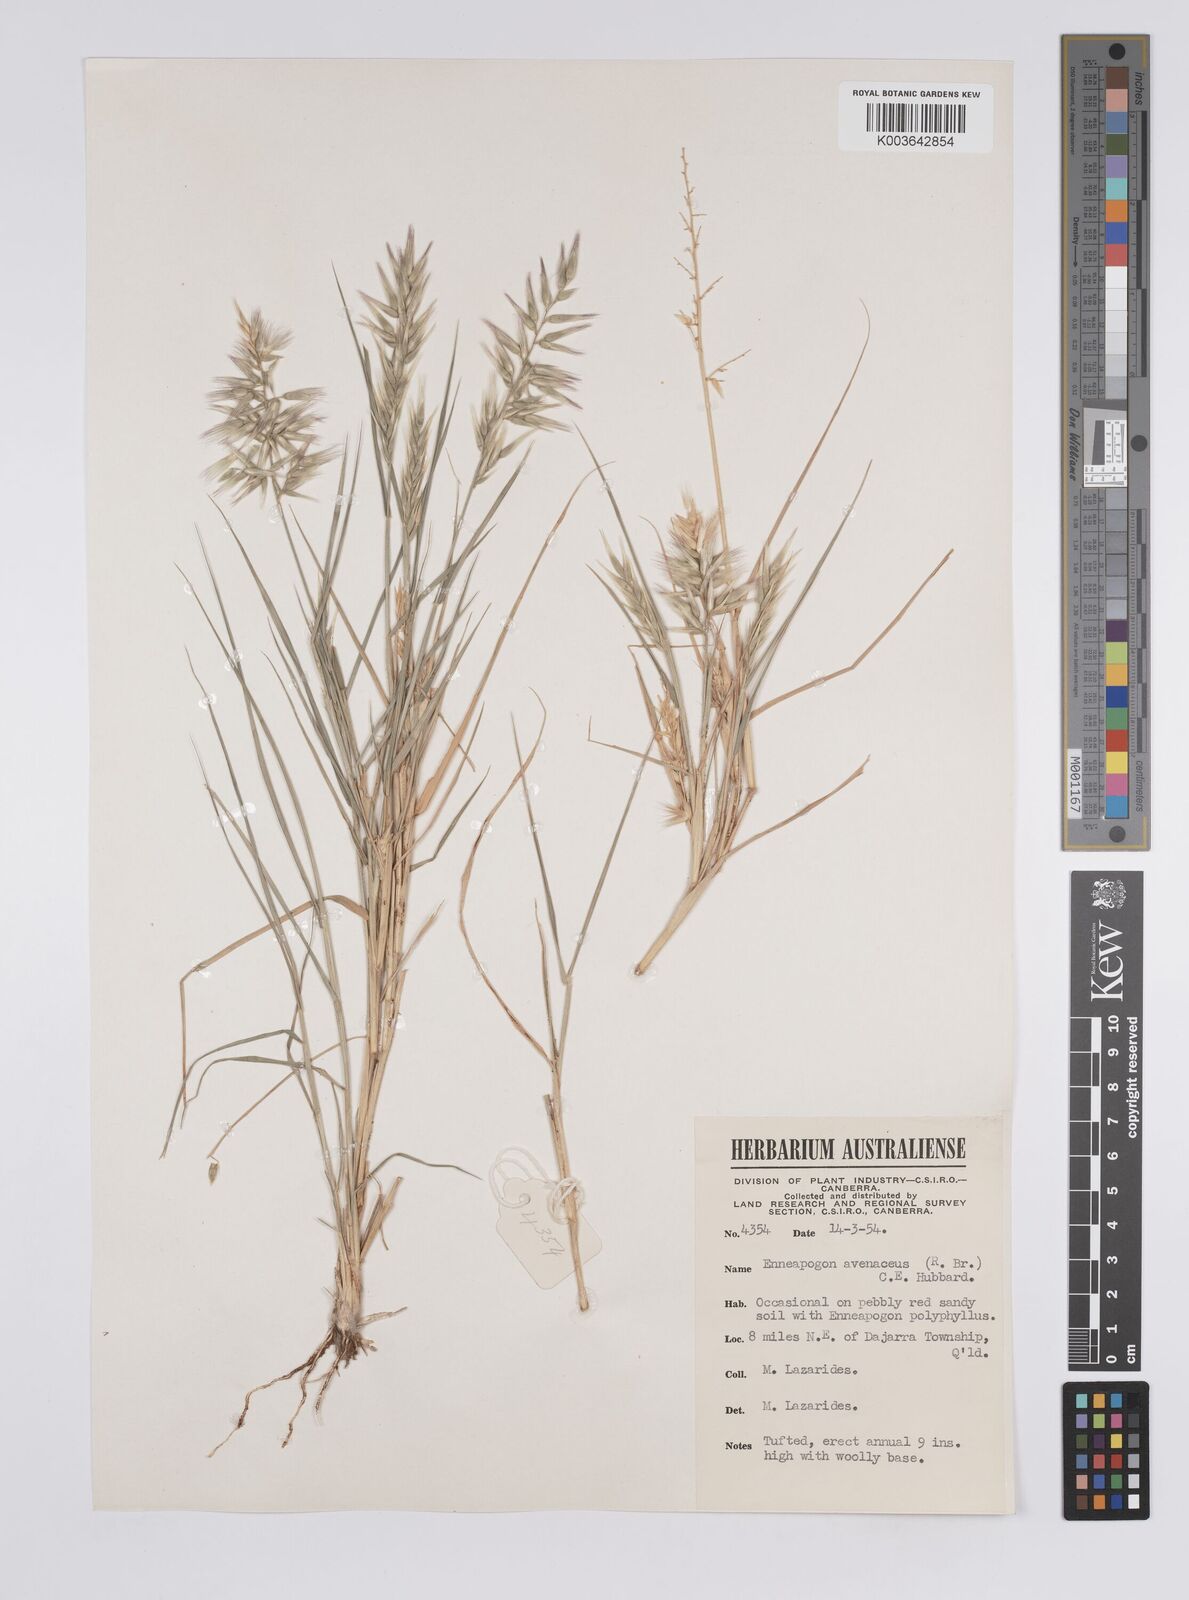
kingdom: Plantae
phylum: Tracheophyta
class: Liliopsida
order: Poales
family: Poaceae
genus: Enneapogon
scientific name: Enneapogon avenaceus
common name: Hairy oat grass
